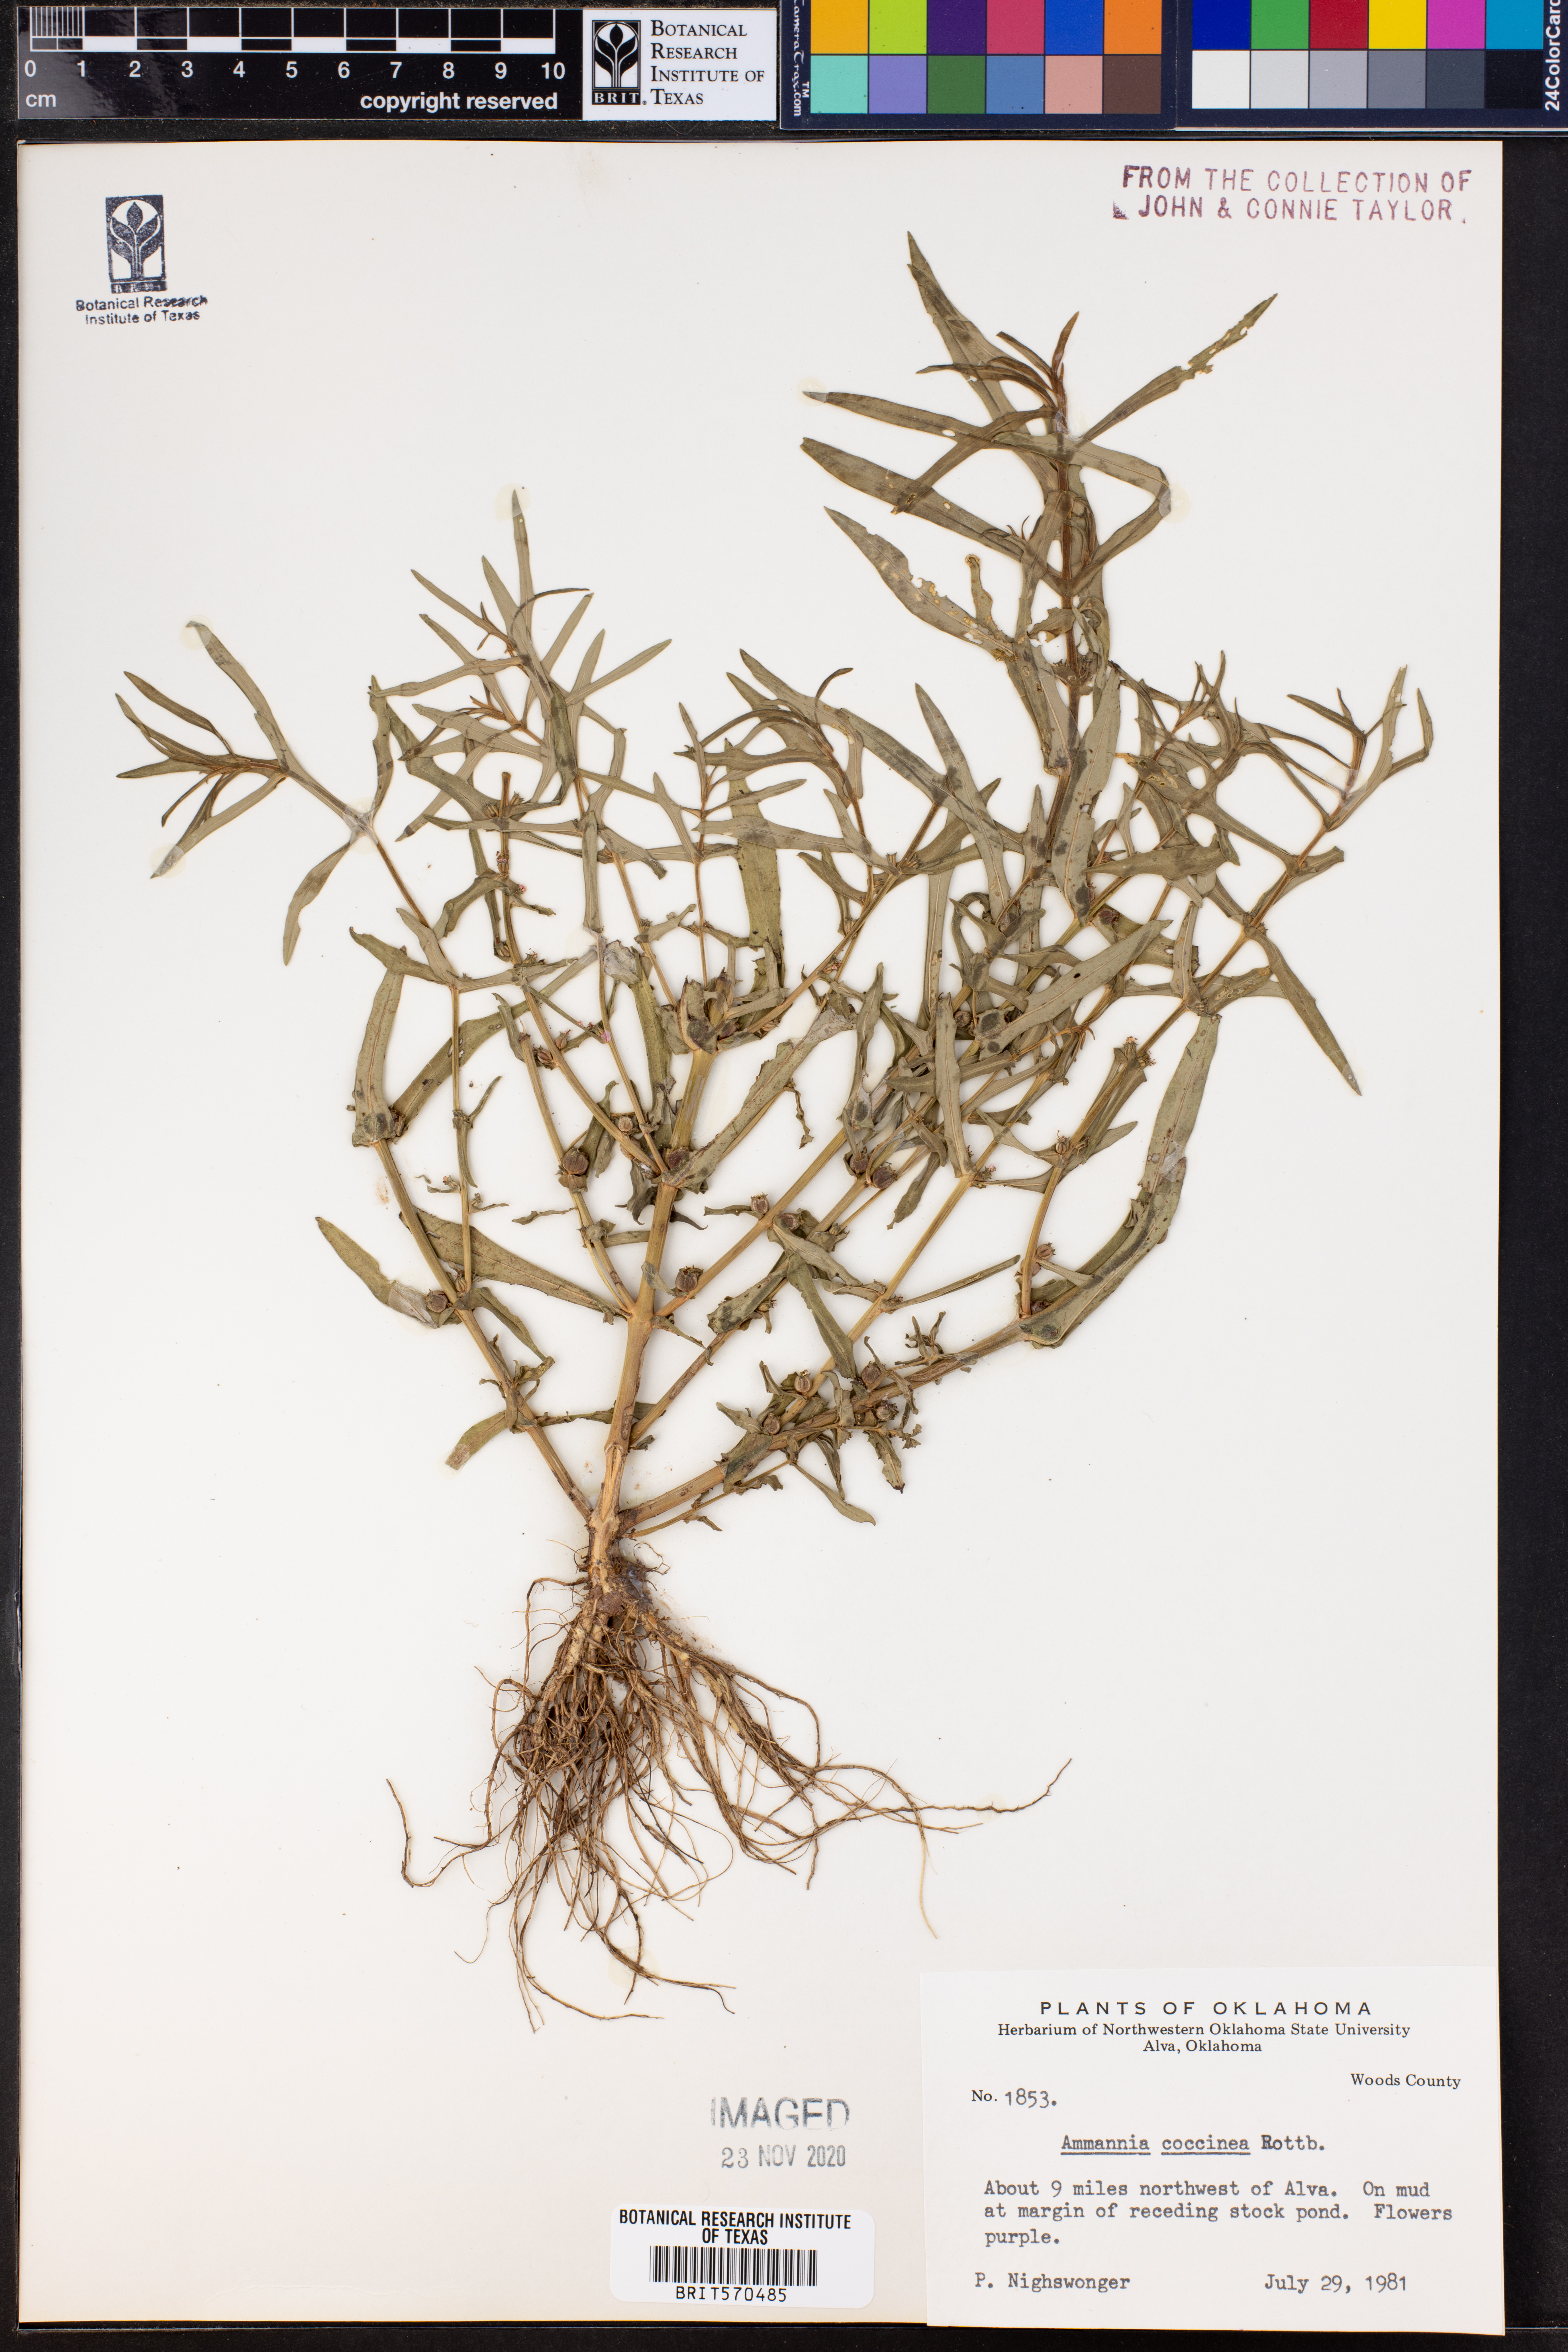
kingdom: Plantae
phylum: Tracheophyta
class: Magnoliopsida
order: Myrtales
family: Lythraceae
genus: Ammannia
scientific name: Ammannia coccinea
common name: Valley redstem
